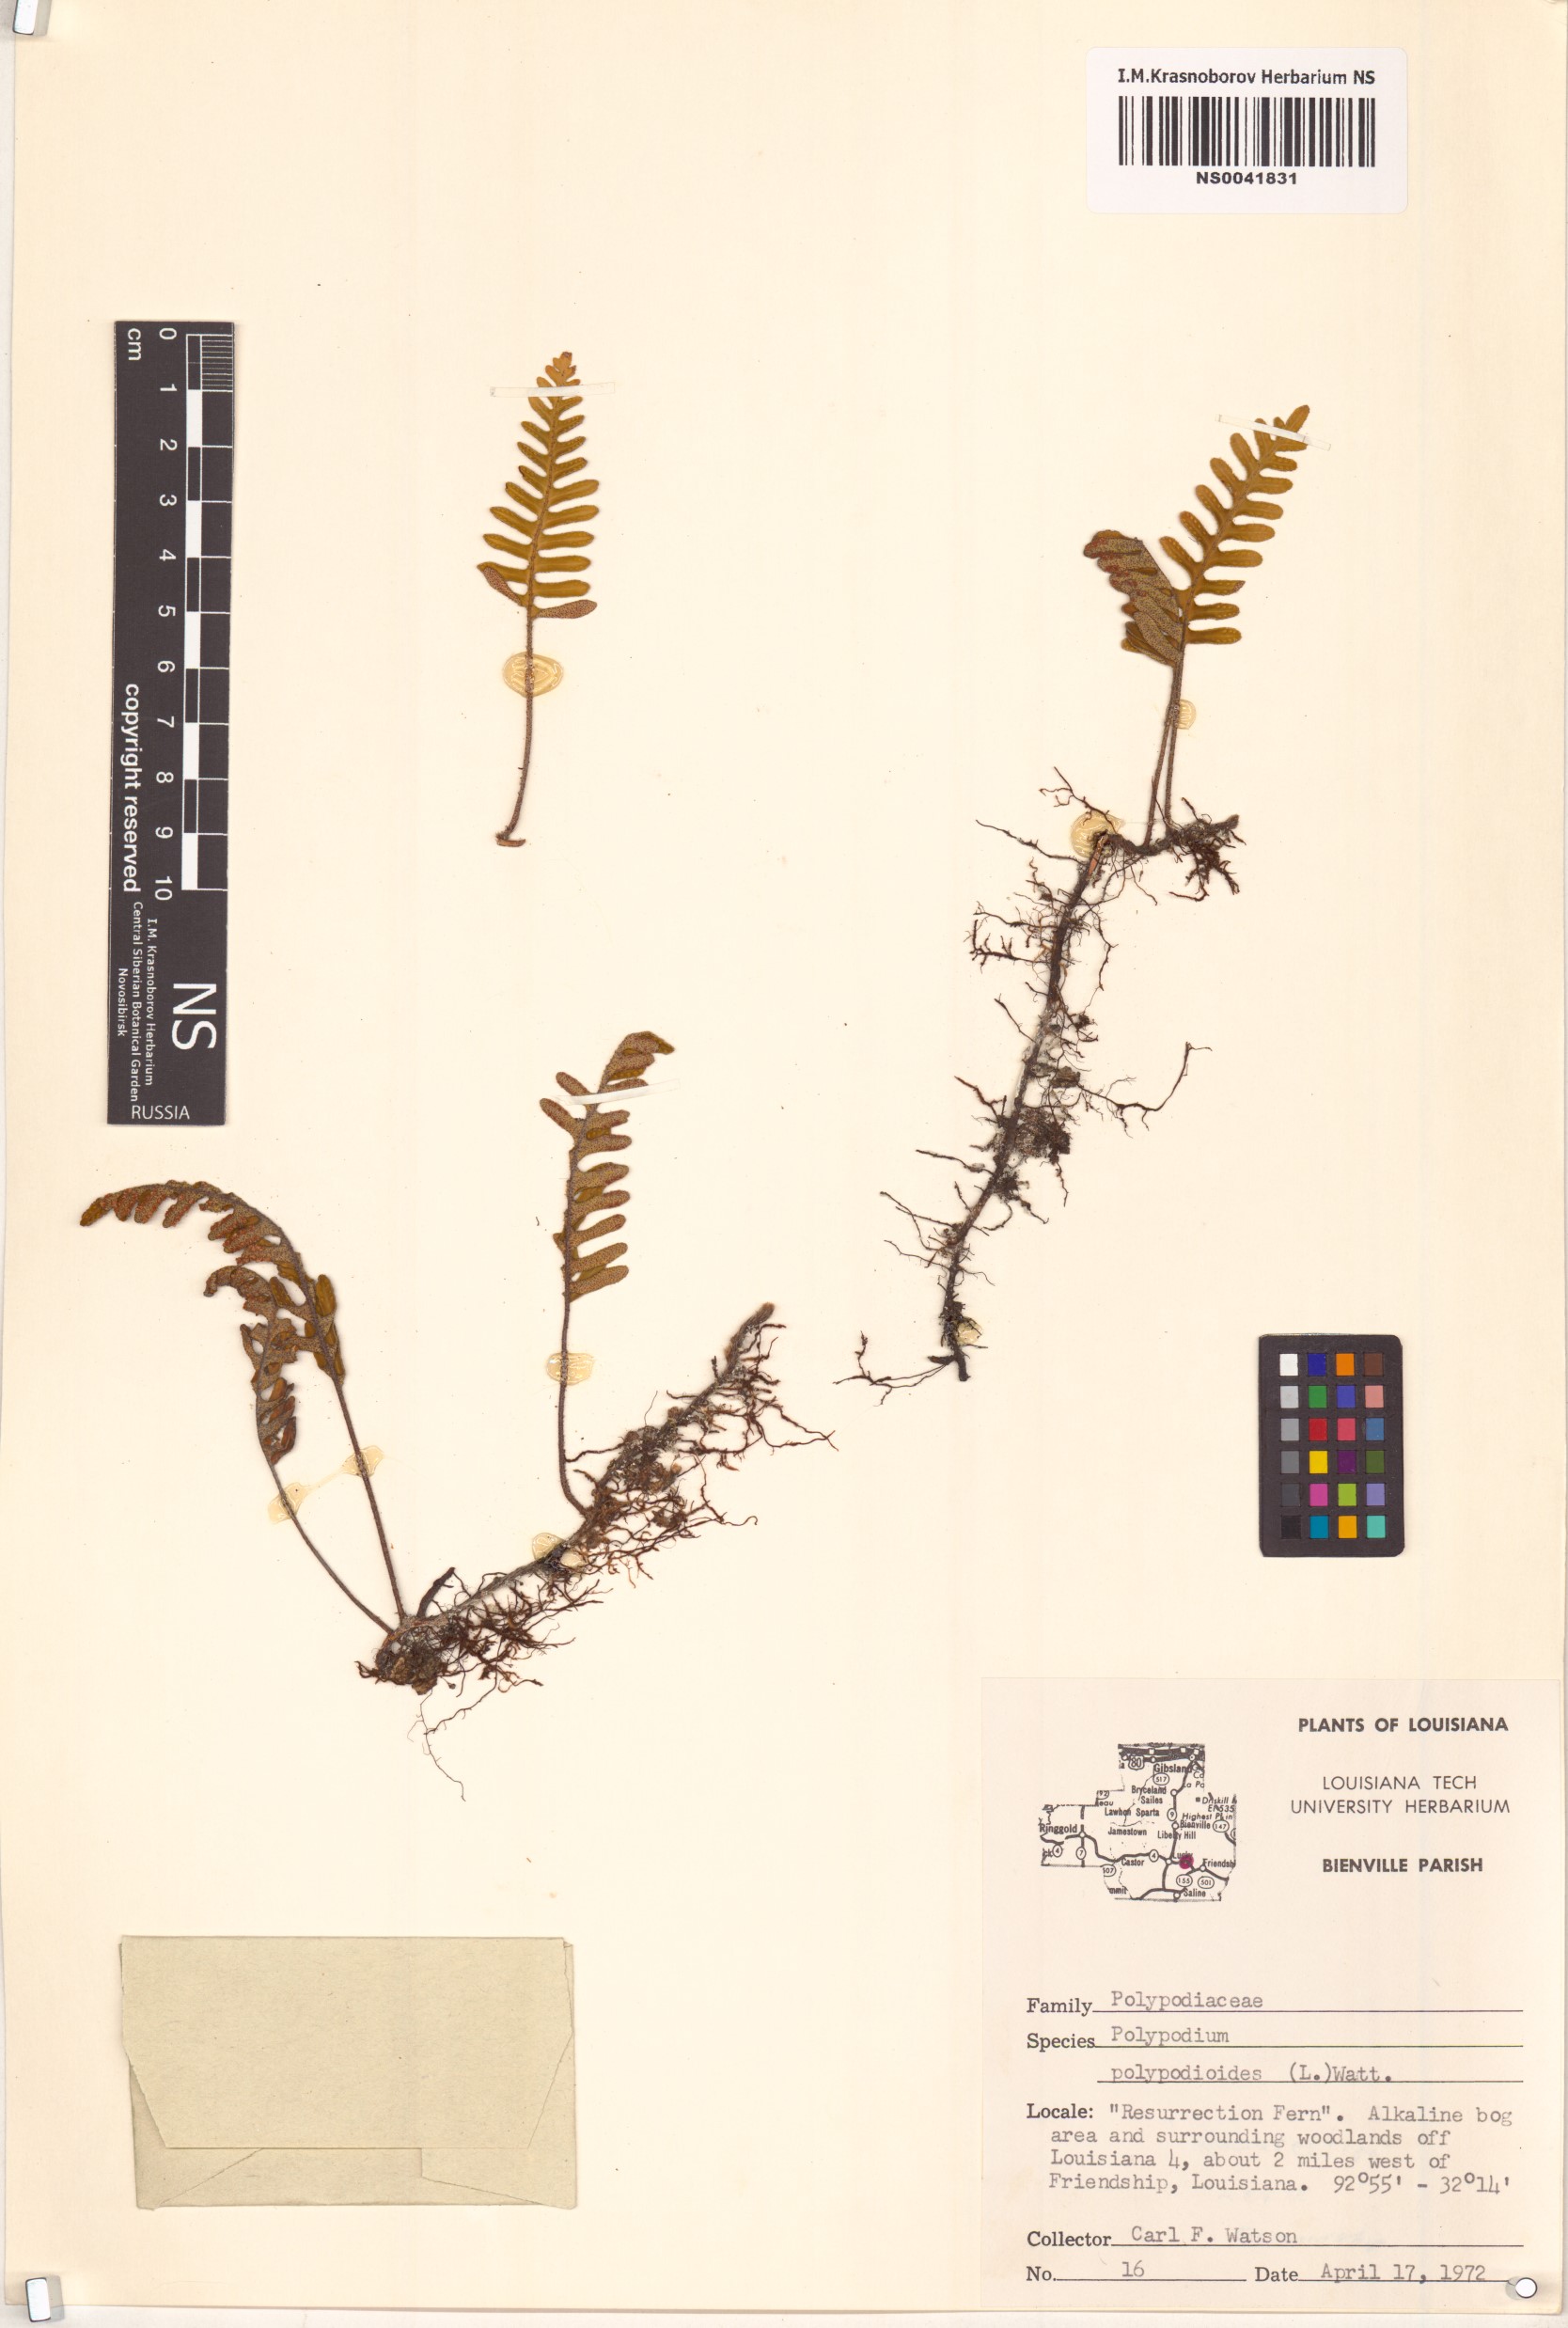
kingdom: Plantae
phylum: Tracheophyta
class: Polypodiopsida
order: Polypodiales
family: Polypodiaceae
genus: Pleopeltis
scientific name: Pleopeltis polypodioides
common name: Resurrection fern
